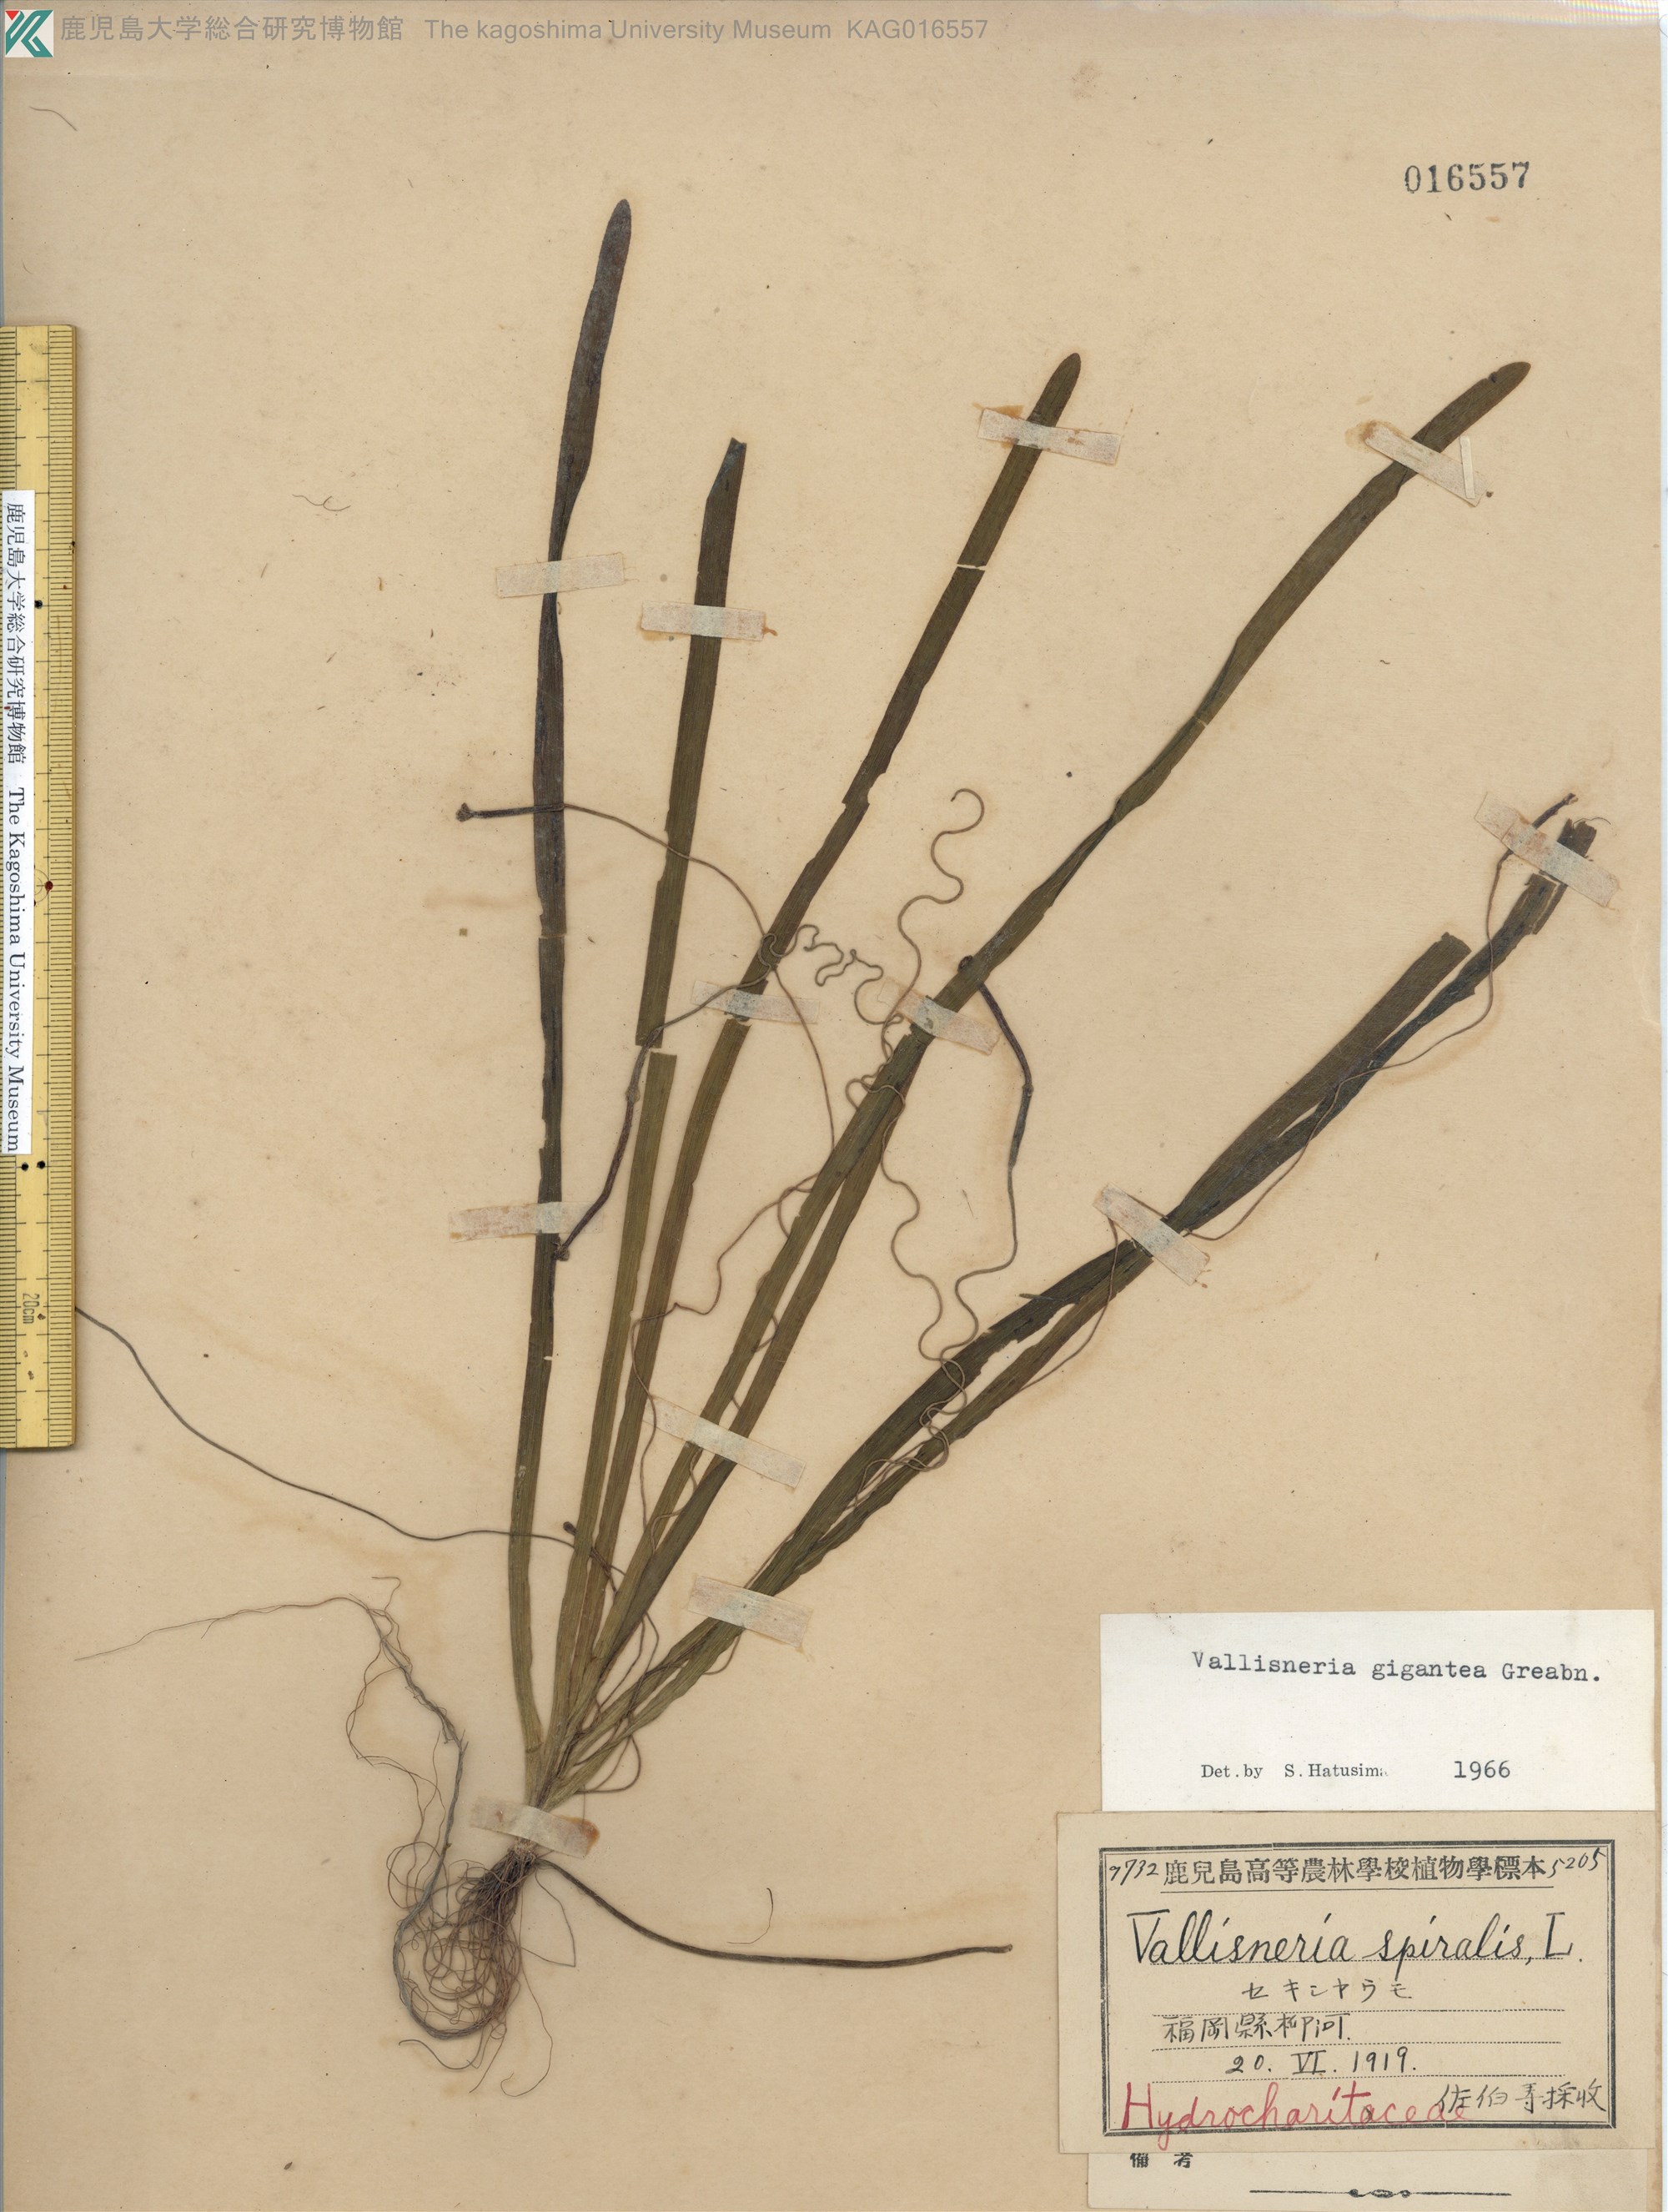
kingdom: Plantae
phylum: Tracheophyta
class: Liliopsida
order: Alismatales
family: Hydrocharitaceae
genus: Vallisneria
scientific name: Vallisneria natans
